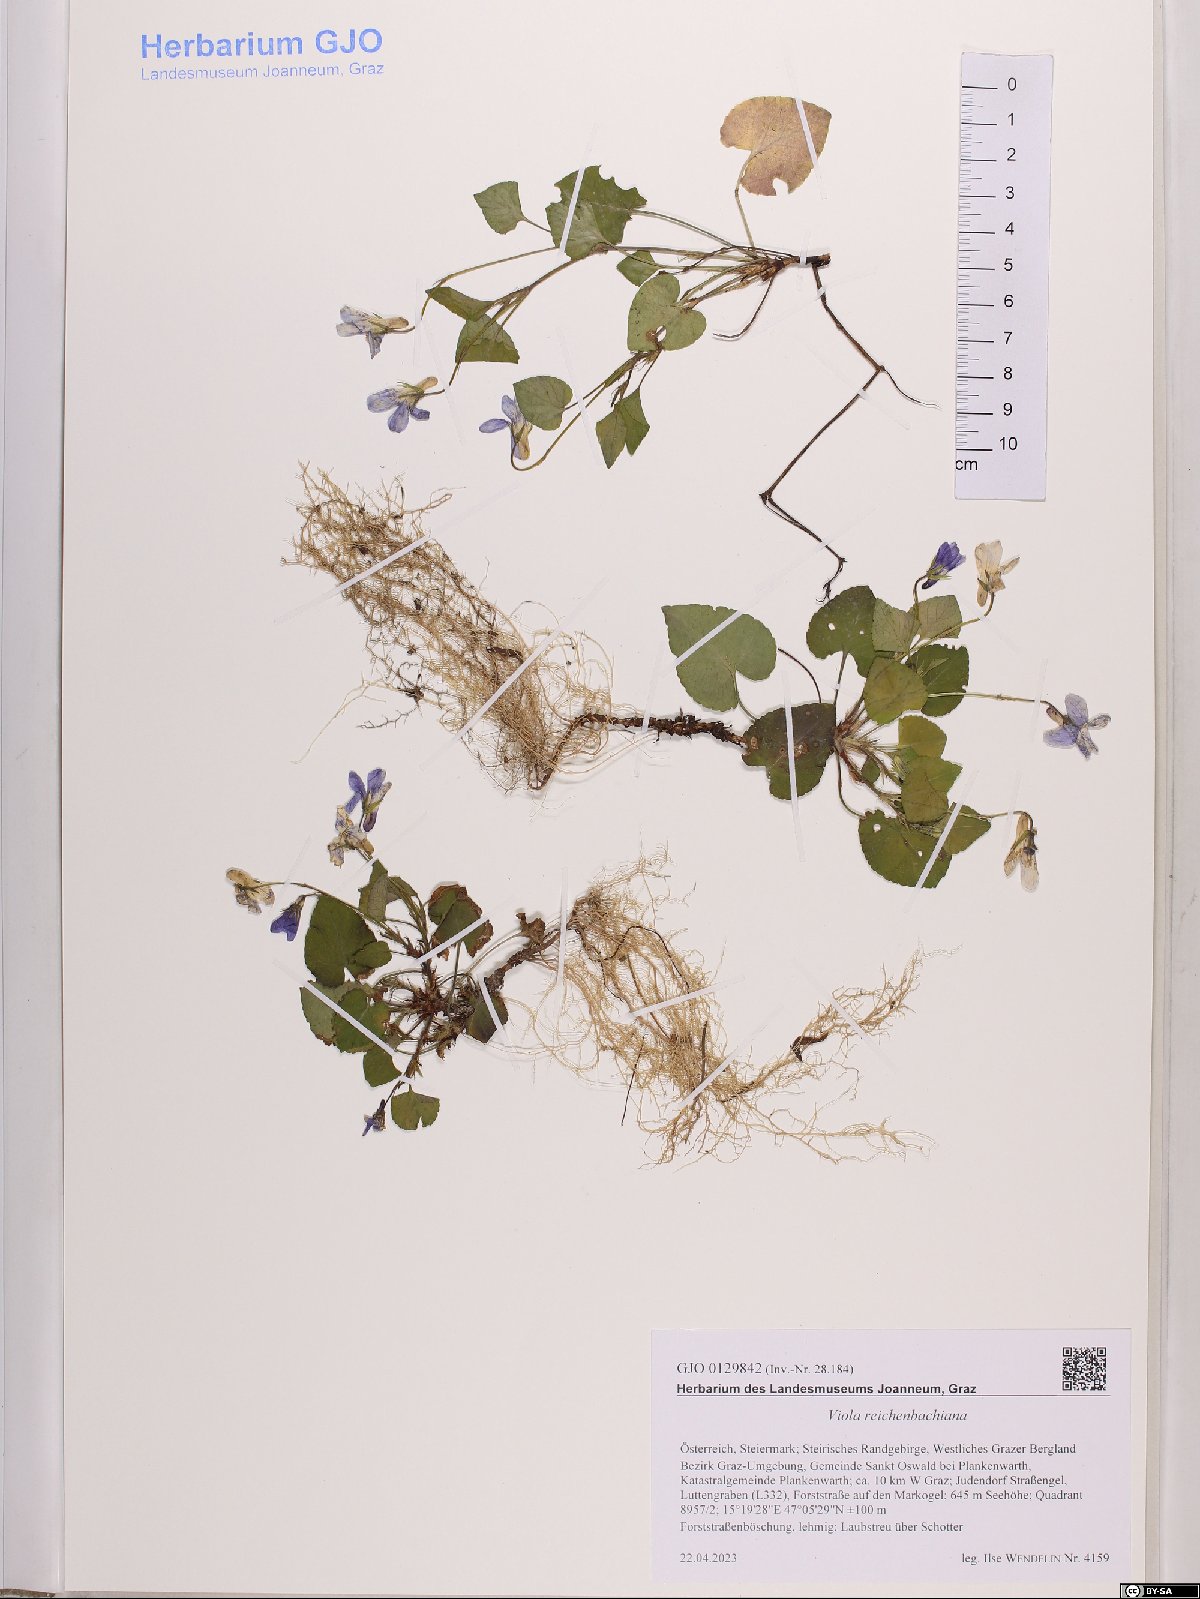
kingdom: Plantae
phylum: Tracheophyta
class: Magnoliopsida
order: Malpighiales
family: Violaceae
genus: Viola
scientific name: Viola reichenbachiana
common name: Early dog-violet
